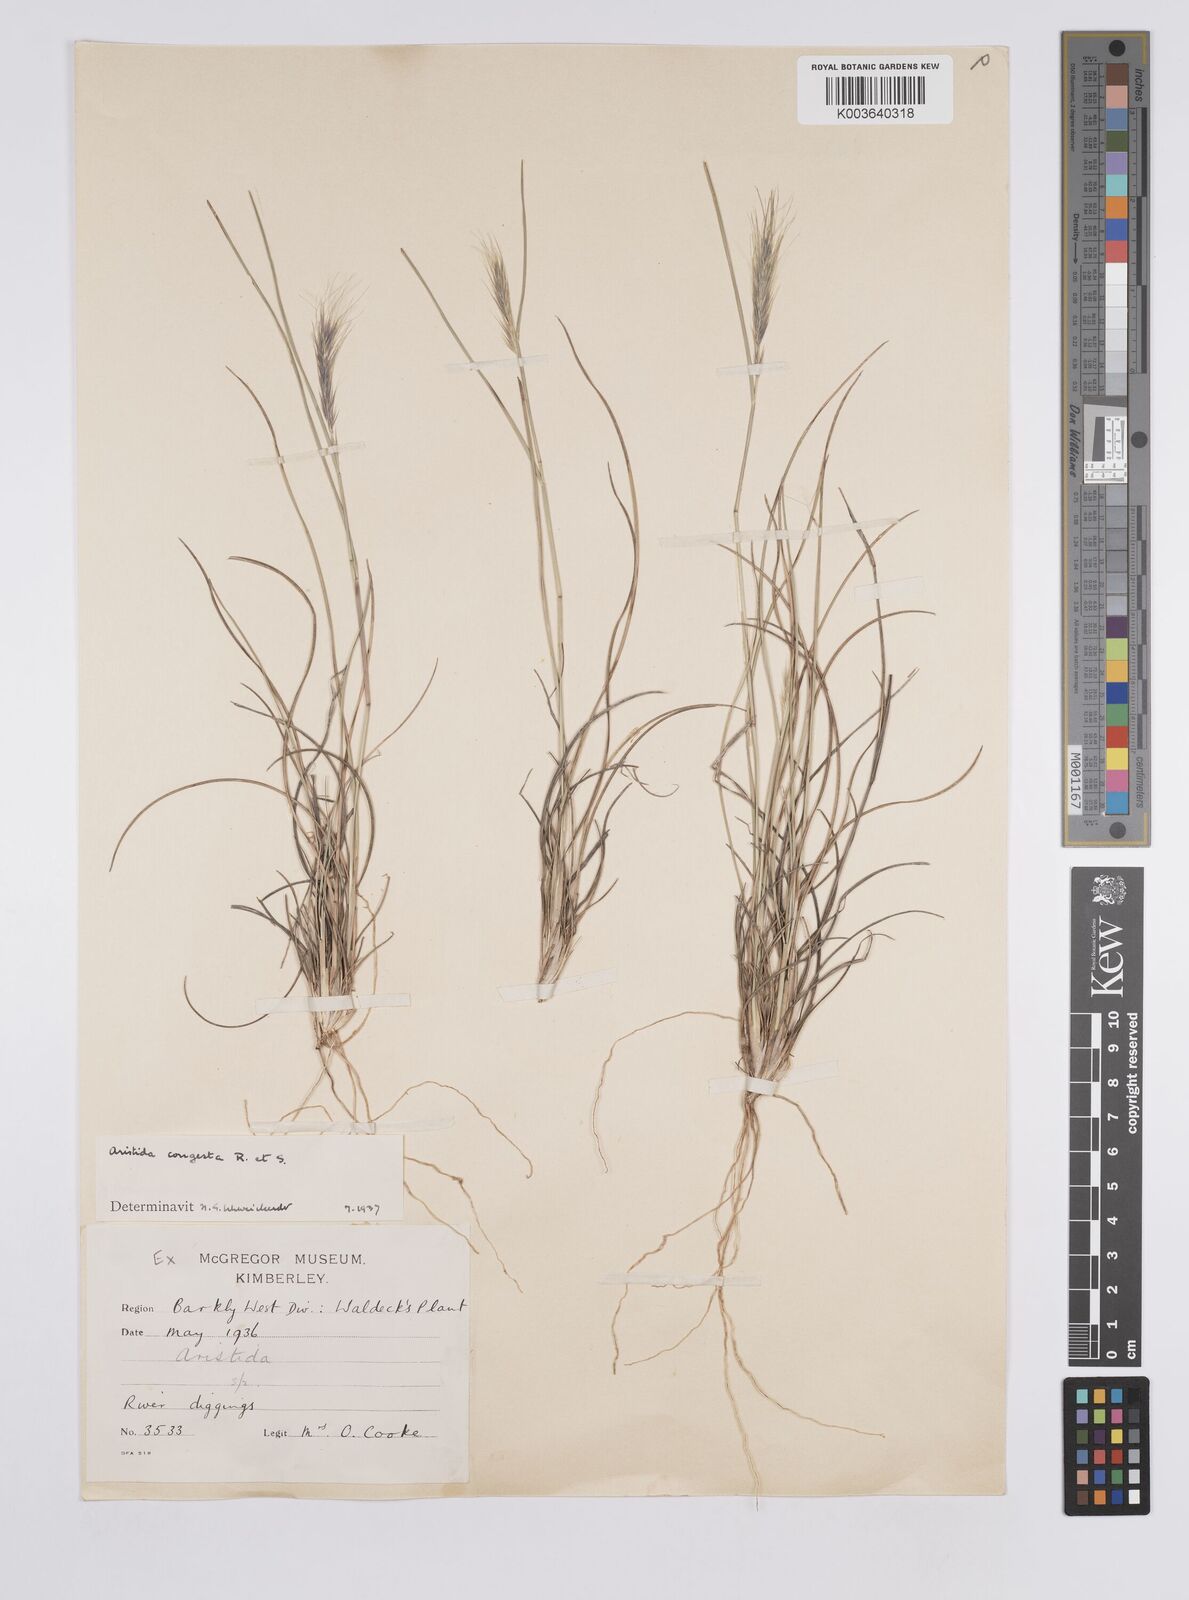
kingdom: Plantae
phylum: Tracheophyta
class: Liliopsida
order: Poales
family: Poaceae
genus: Aristida
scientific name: Aristida congesta
